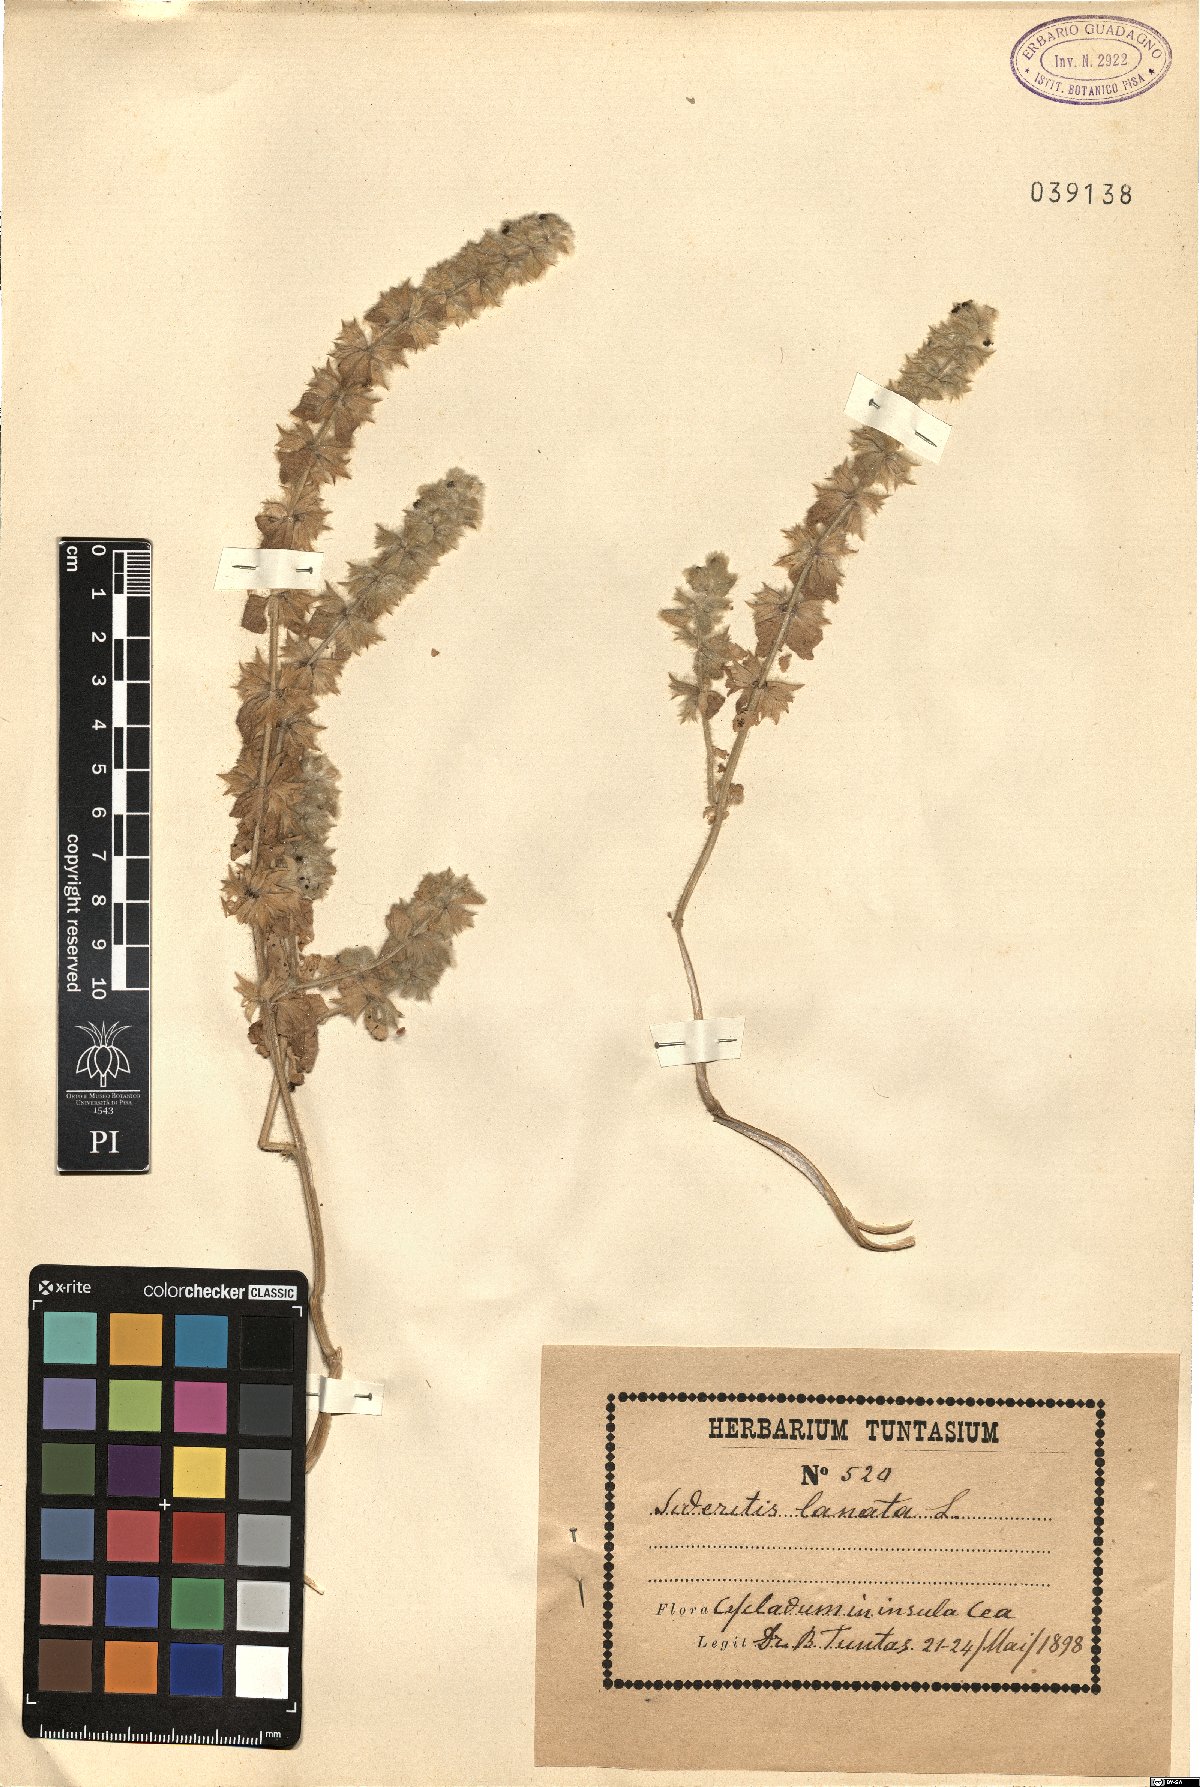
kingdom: Plantae
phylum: Tracheophyta
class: Magnoliopsida
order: Lamiales
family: Lamiaceae
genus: Sideritis
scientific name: Sideritis lanata
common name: Hairy ironwort
